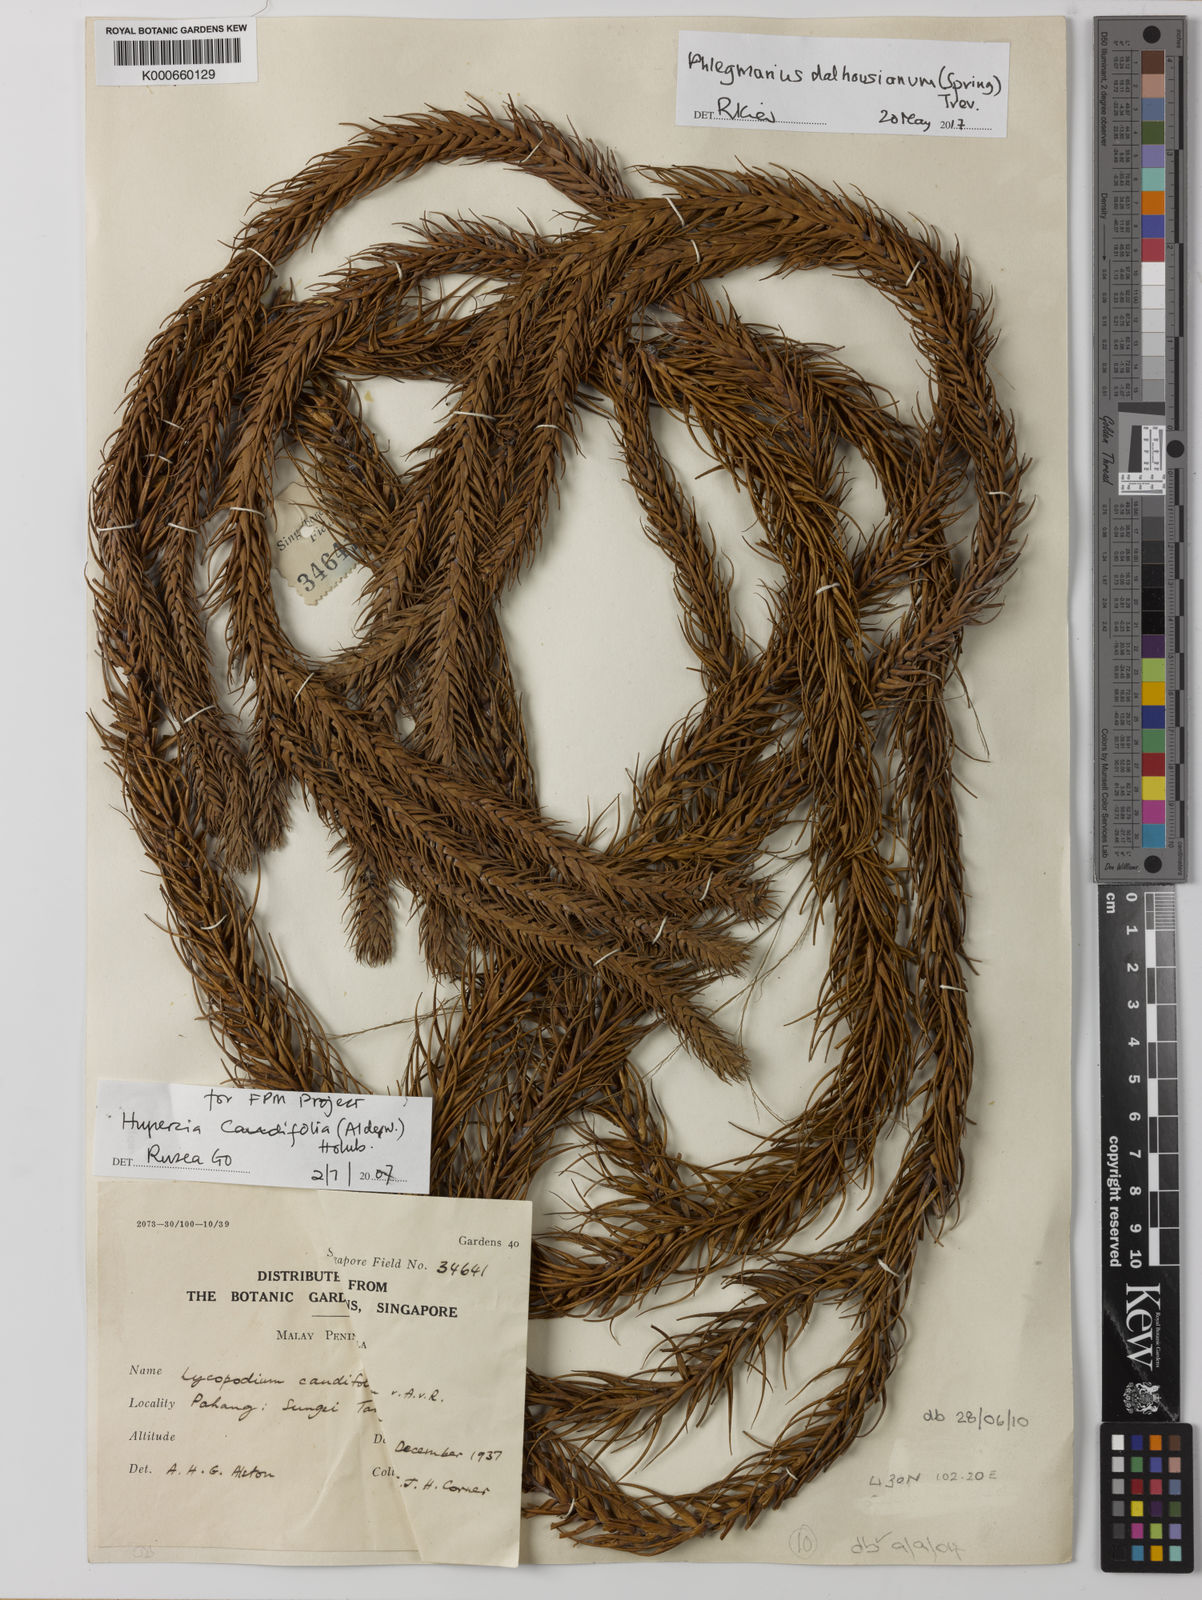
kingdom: Plantae
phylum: Tracheophyta
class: Lycopodiopsida
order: Lycopodiales
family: Lycopodiaceae
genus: Lycopodium
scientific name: Lycopodium
